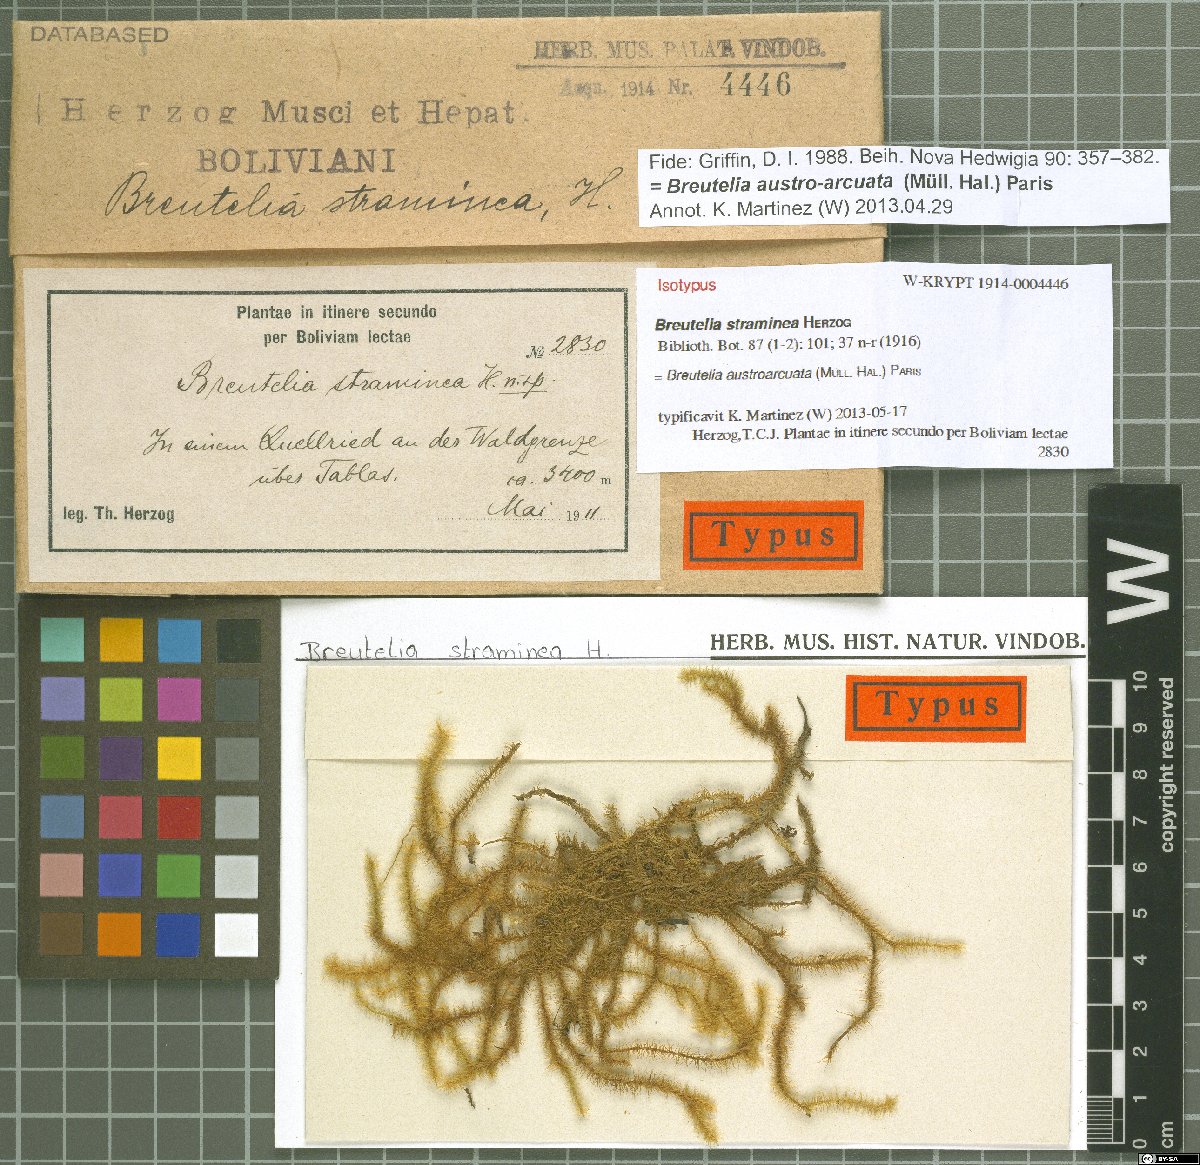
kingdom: Plantae
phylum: Bryophyta
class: Bryopsida
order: Bartramiales
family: Bartramiaceae
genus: Breutelia
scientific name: Breutelia austroarcuata
